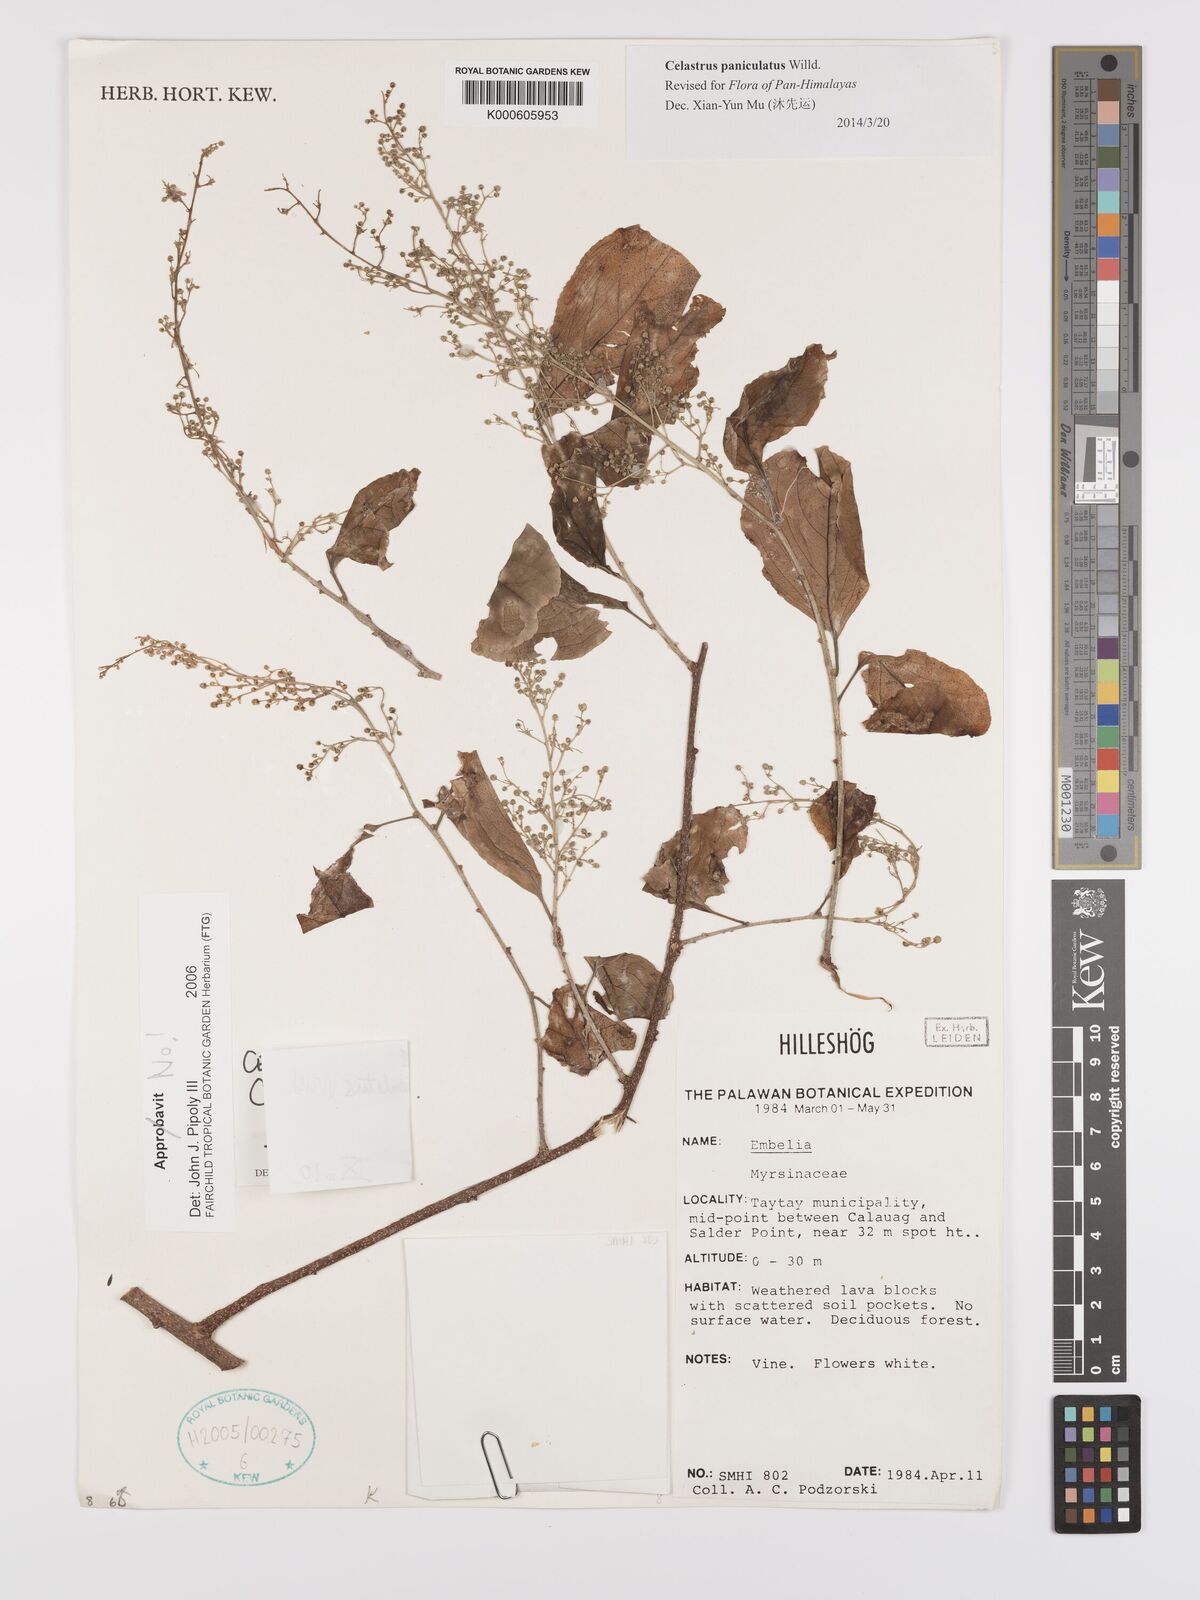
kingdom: Plantae
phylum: Tracheophyta
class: Magnoliopsida
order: Celastrales
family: Celastraceae
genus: Celastrus
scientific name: Celastrus paniculatus
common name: Oriental bittersweet; staff vine
